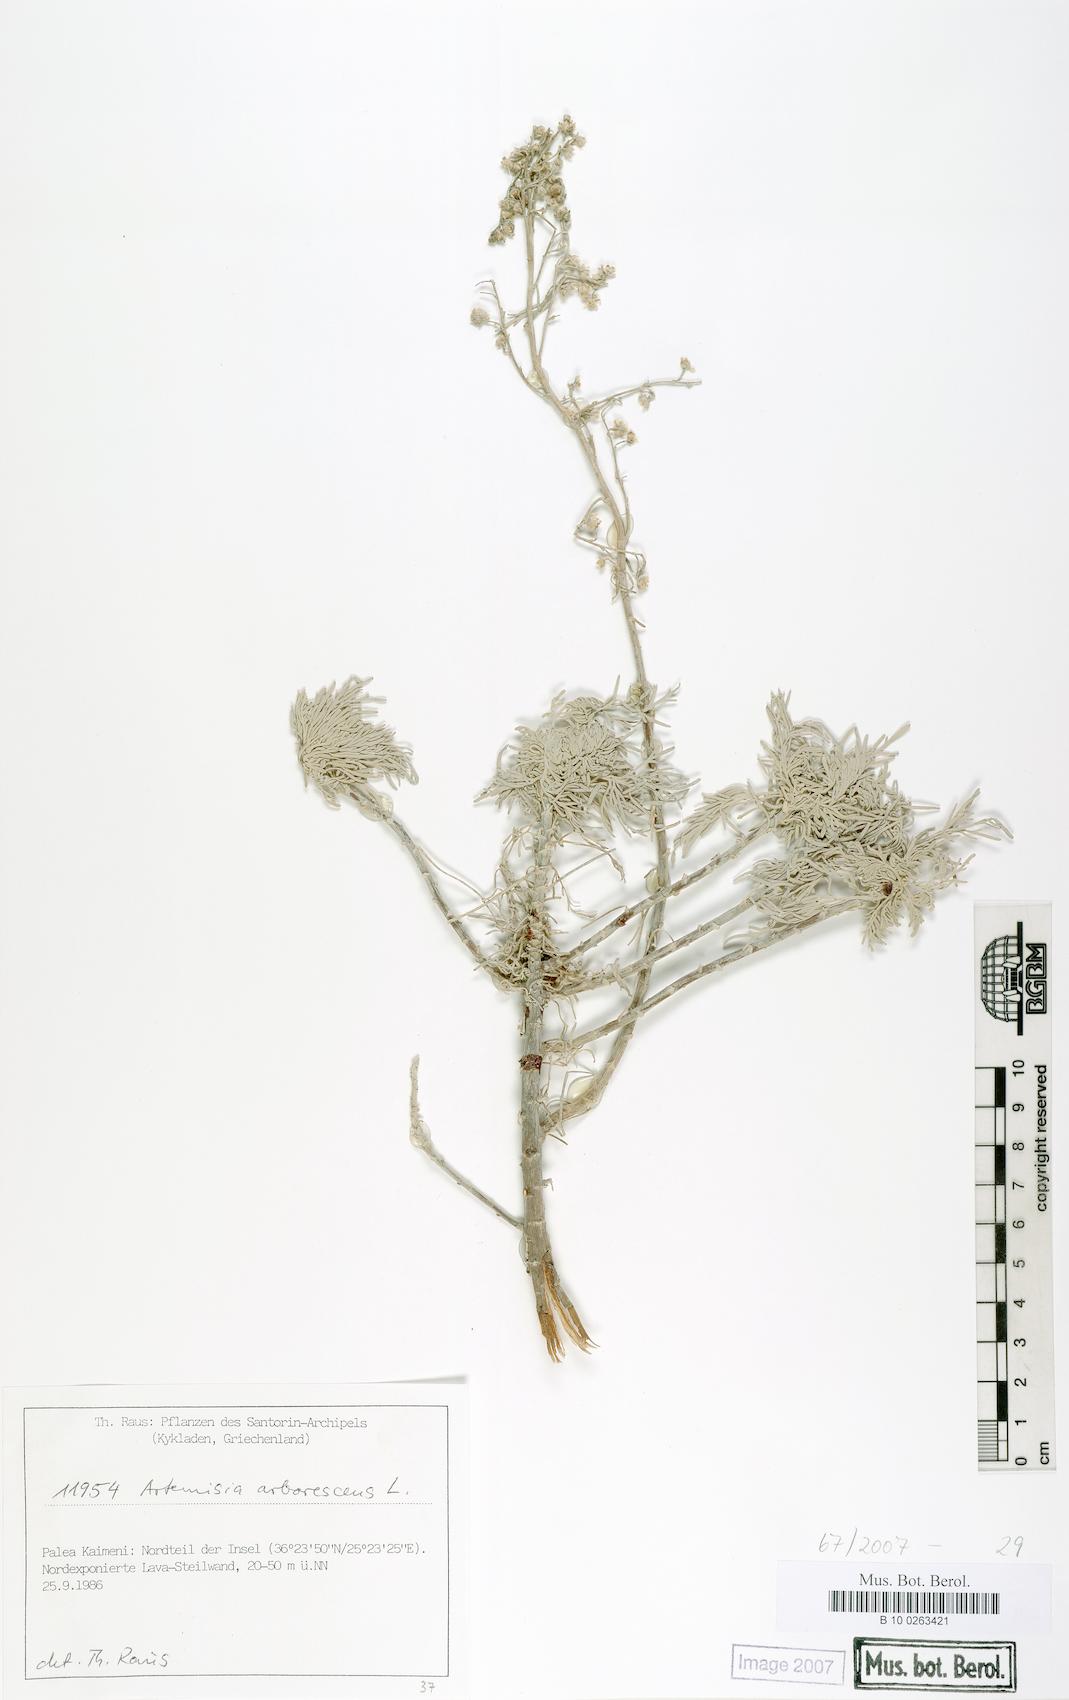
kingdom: Plantae
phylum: Tracheophyta
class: Magnoliopsida
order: Asterales
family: Asteraceae
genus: Artemisia
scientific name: Artemisia arborescens
